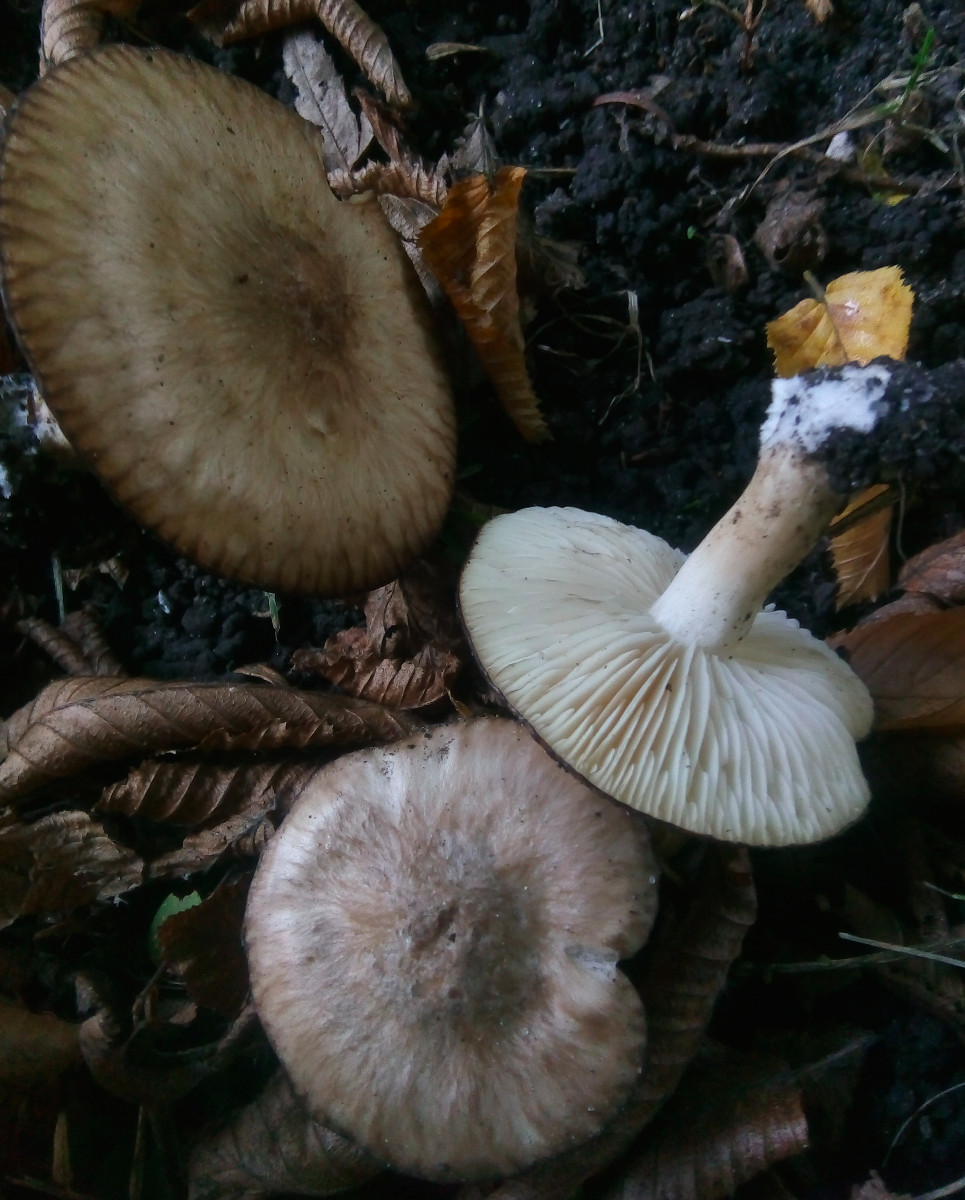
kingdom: Fungi
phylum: Basidiomycota
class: Agaricomycetes
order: Agaricales
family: Lyophyllaceae
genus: Lyophyllum
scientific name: Lyophyllum paelochroum
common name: blånende gråblad
